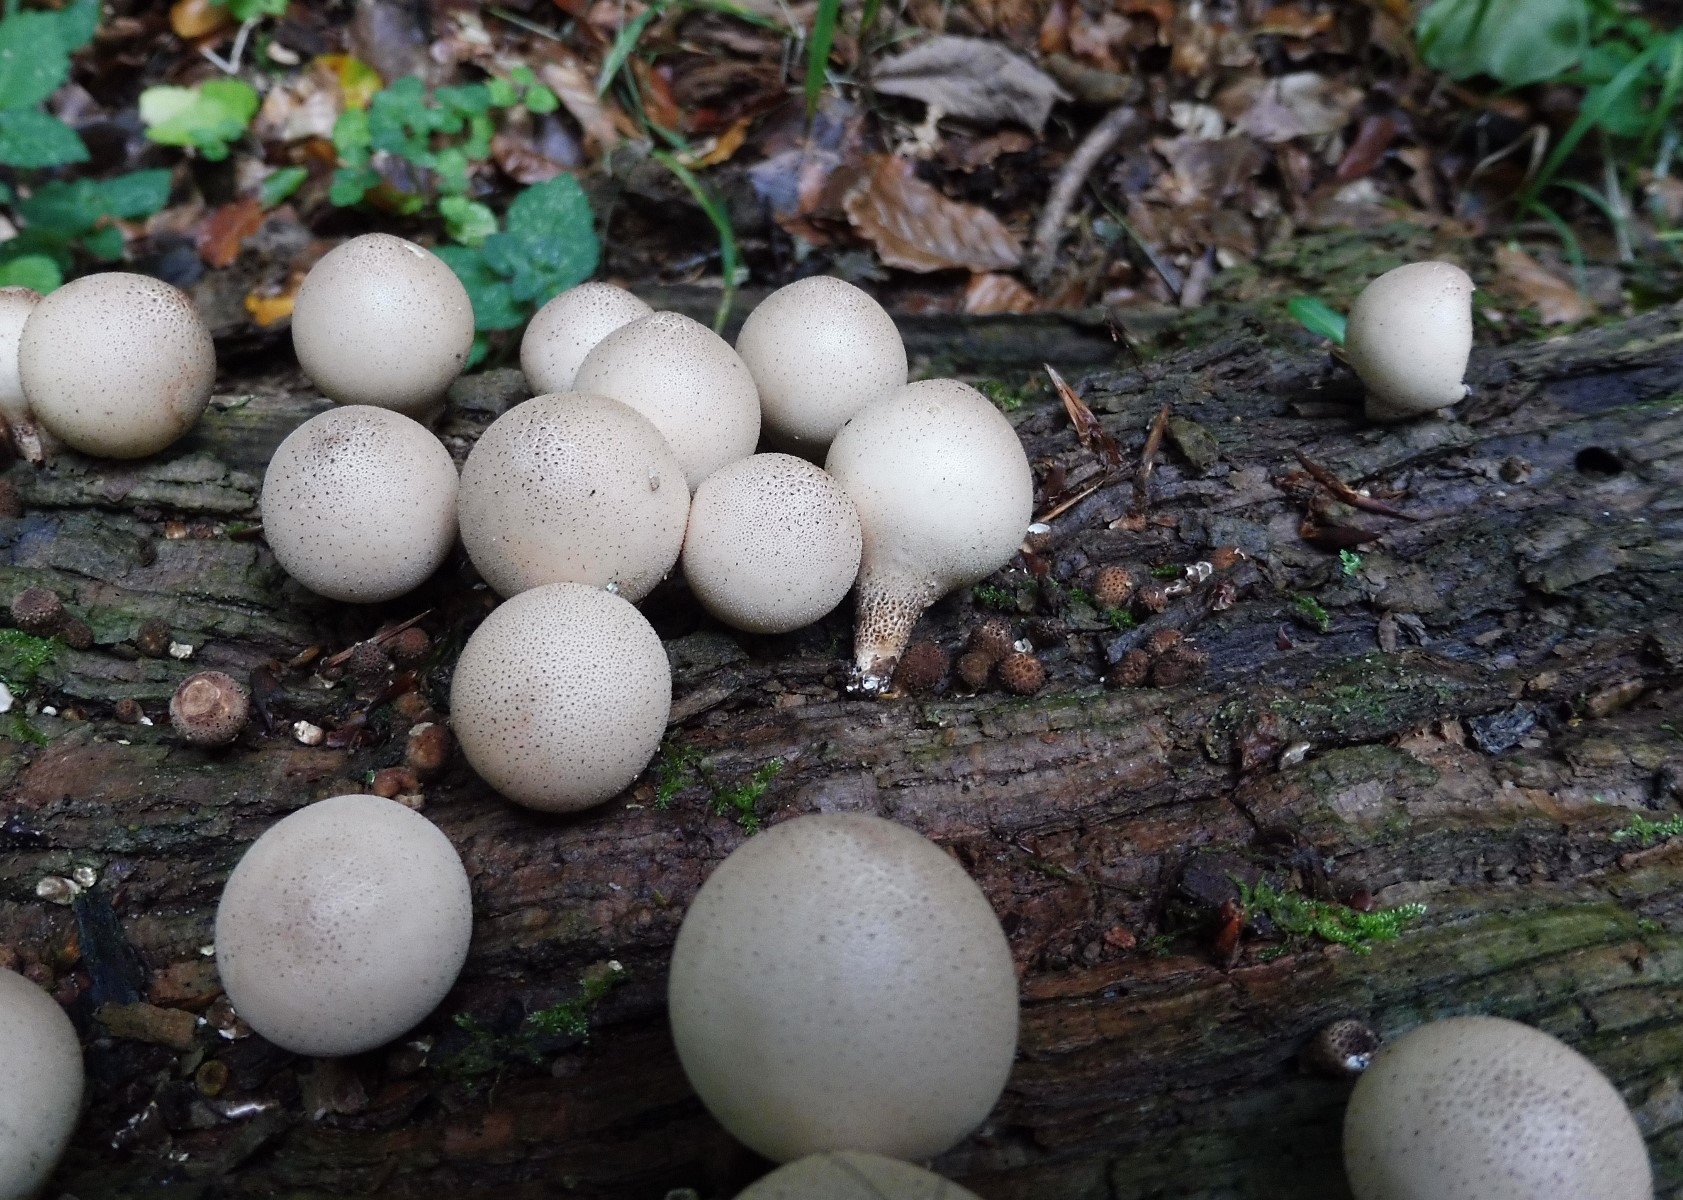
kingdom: Fungi
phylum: Basidiomycota
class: Agaricomycetes
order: Agaricales
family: Lycoperdaceae
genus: Apioperdon
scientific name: Apioperdon pyriforme
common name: pære-støvbold
